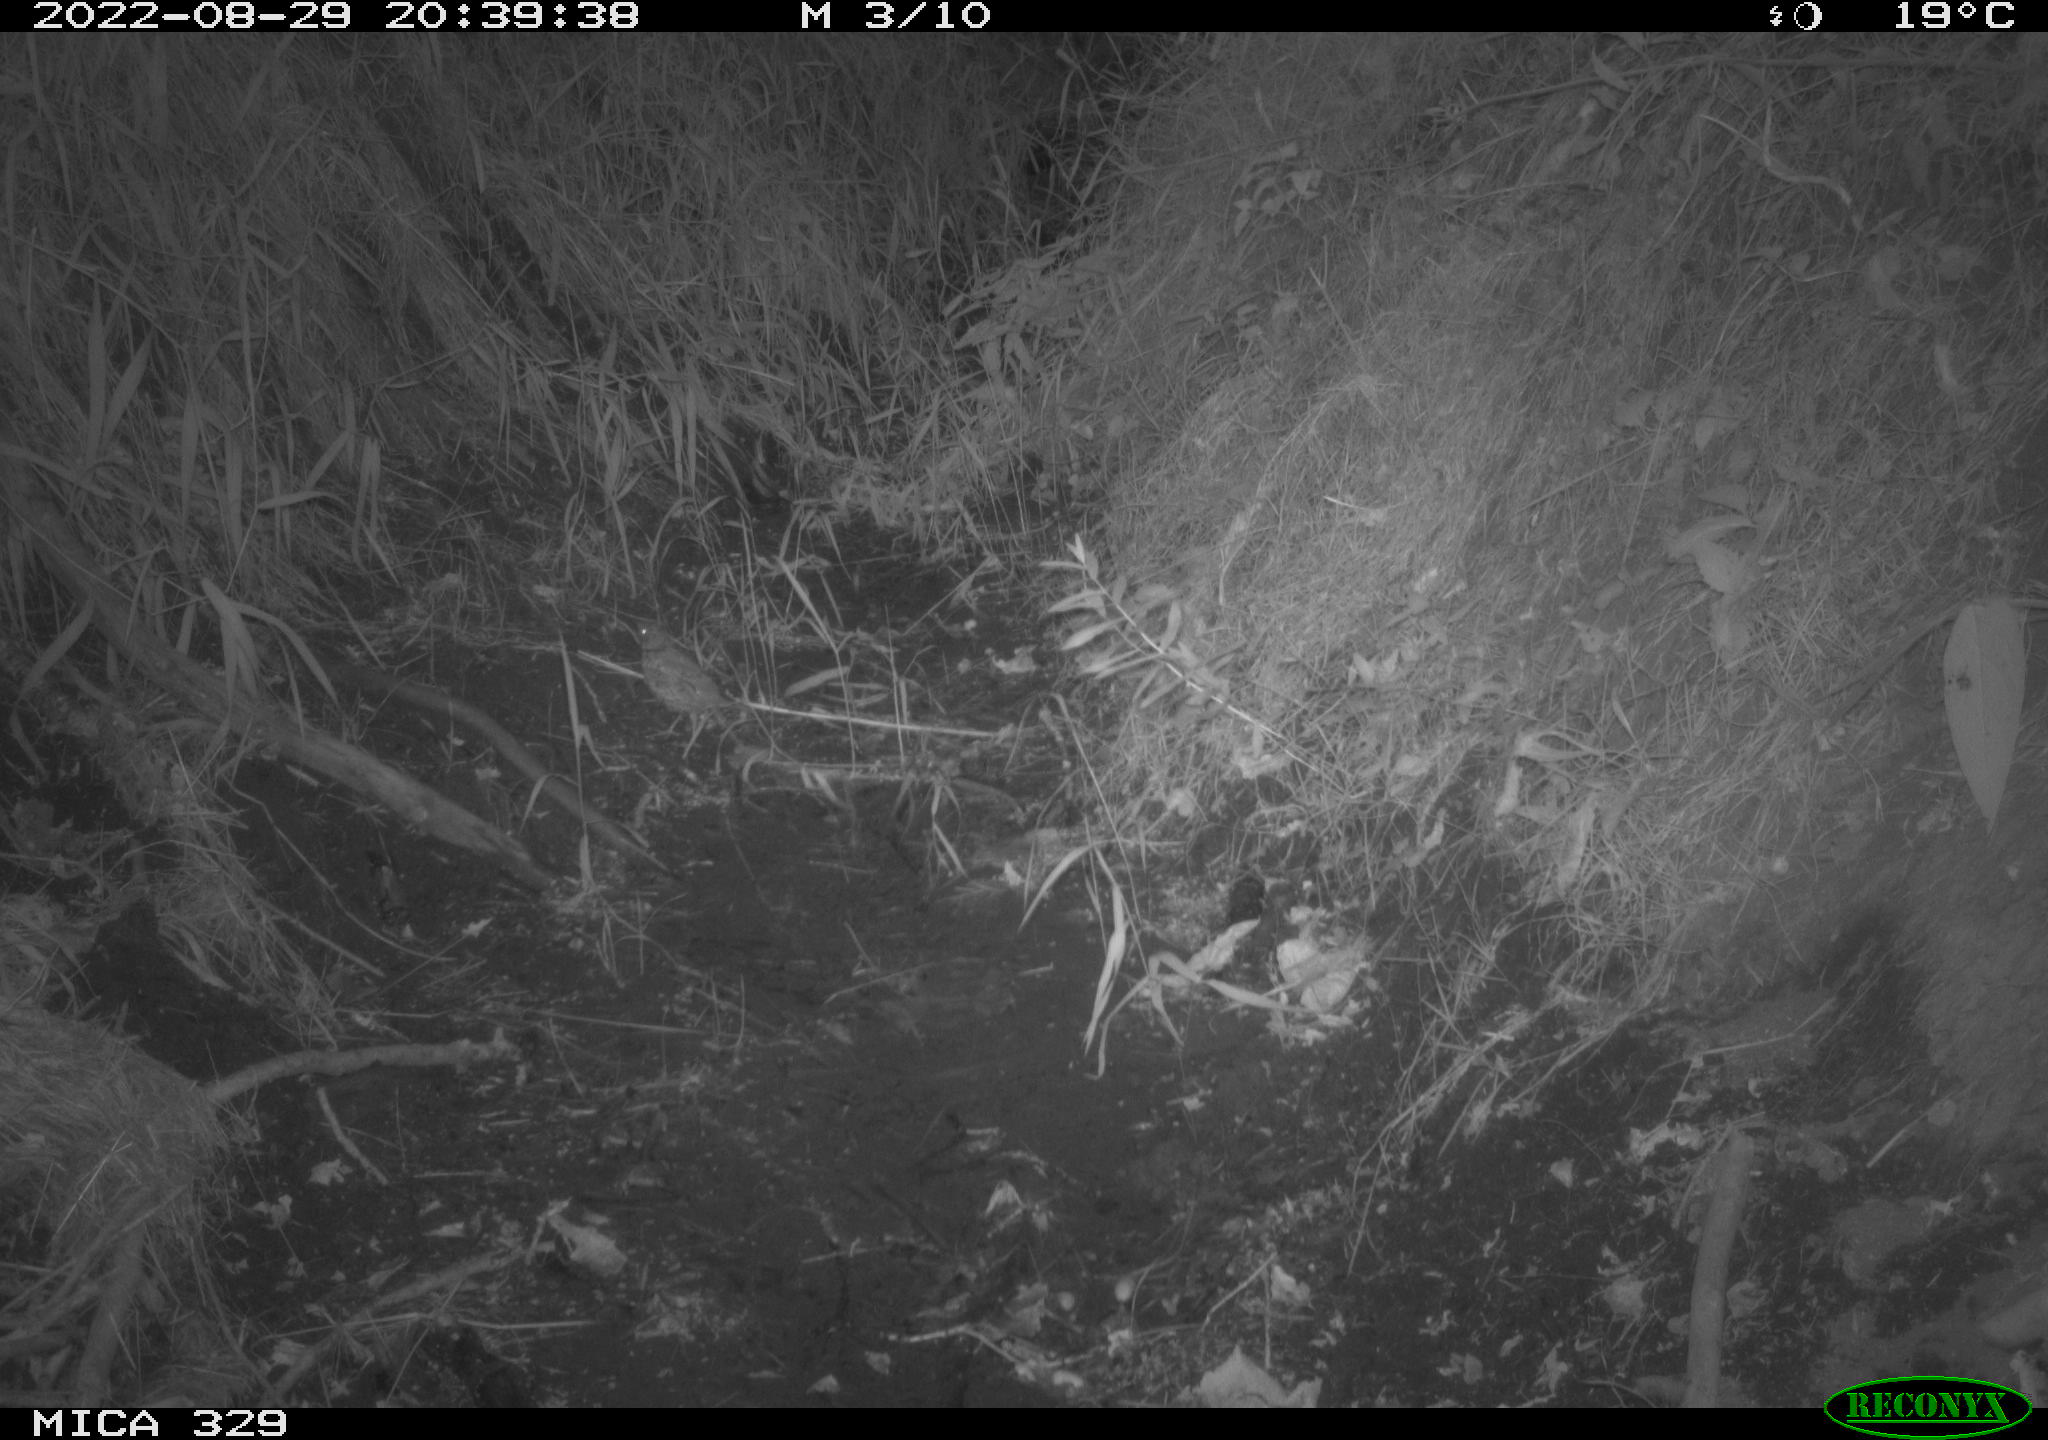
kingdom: Animalia
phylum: Chordata
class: Aves
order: Passeriformes
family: Turdidae
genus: Turdus
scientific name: Turdus merula
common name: Common blackbird
